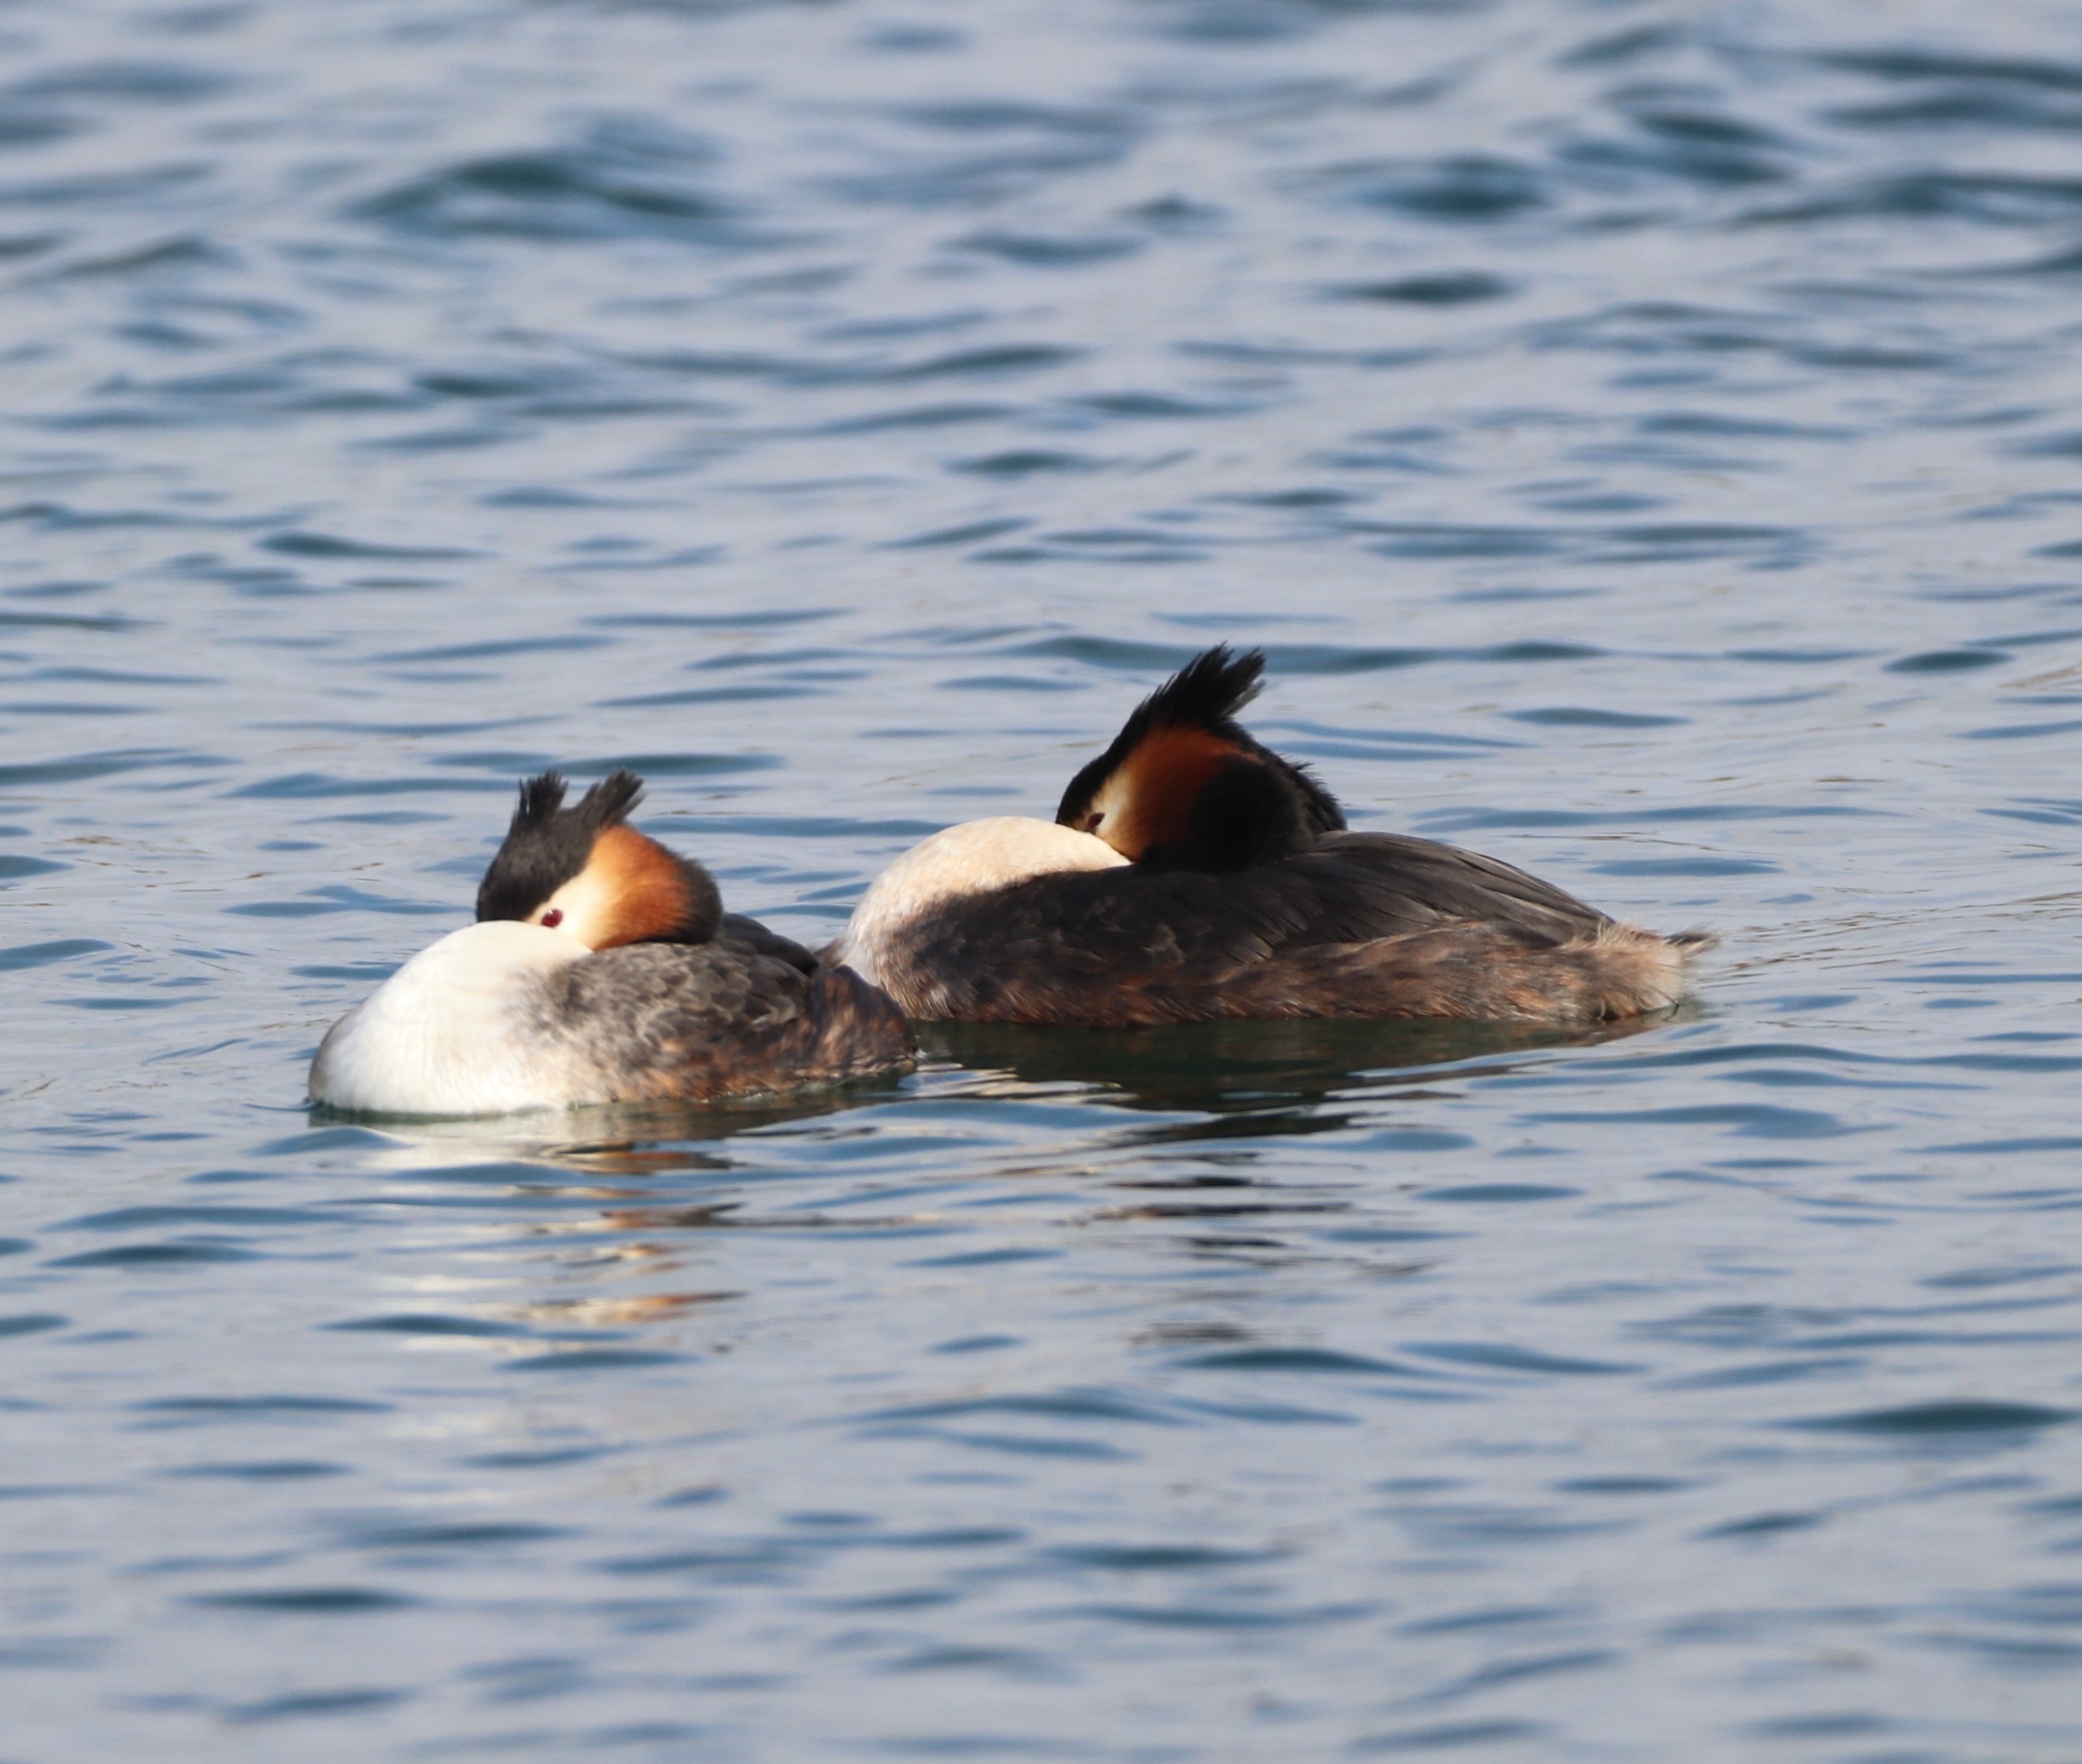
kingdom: Animalia
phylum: Chordata
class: Aves
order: Podicipediformes
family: Podicipedidae
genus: Podiceps
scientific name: Podiceps cristatus
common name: Toppet lappedykker
